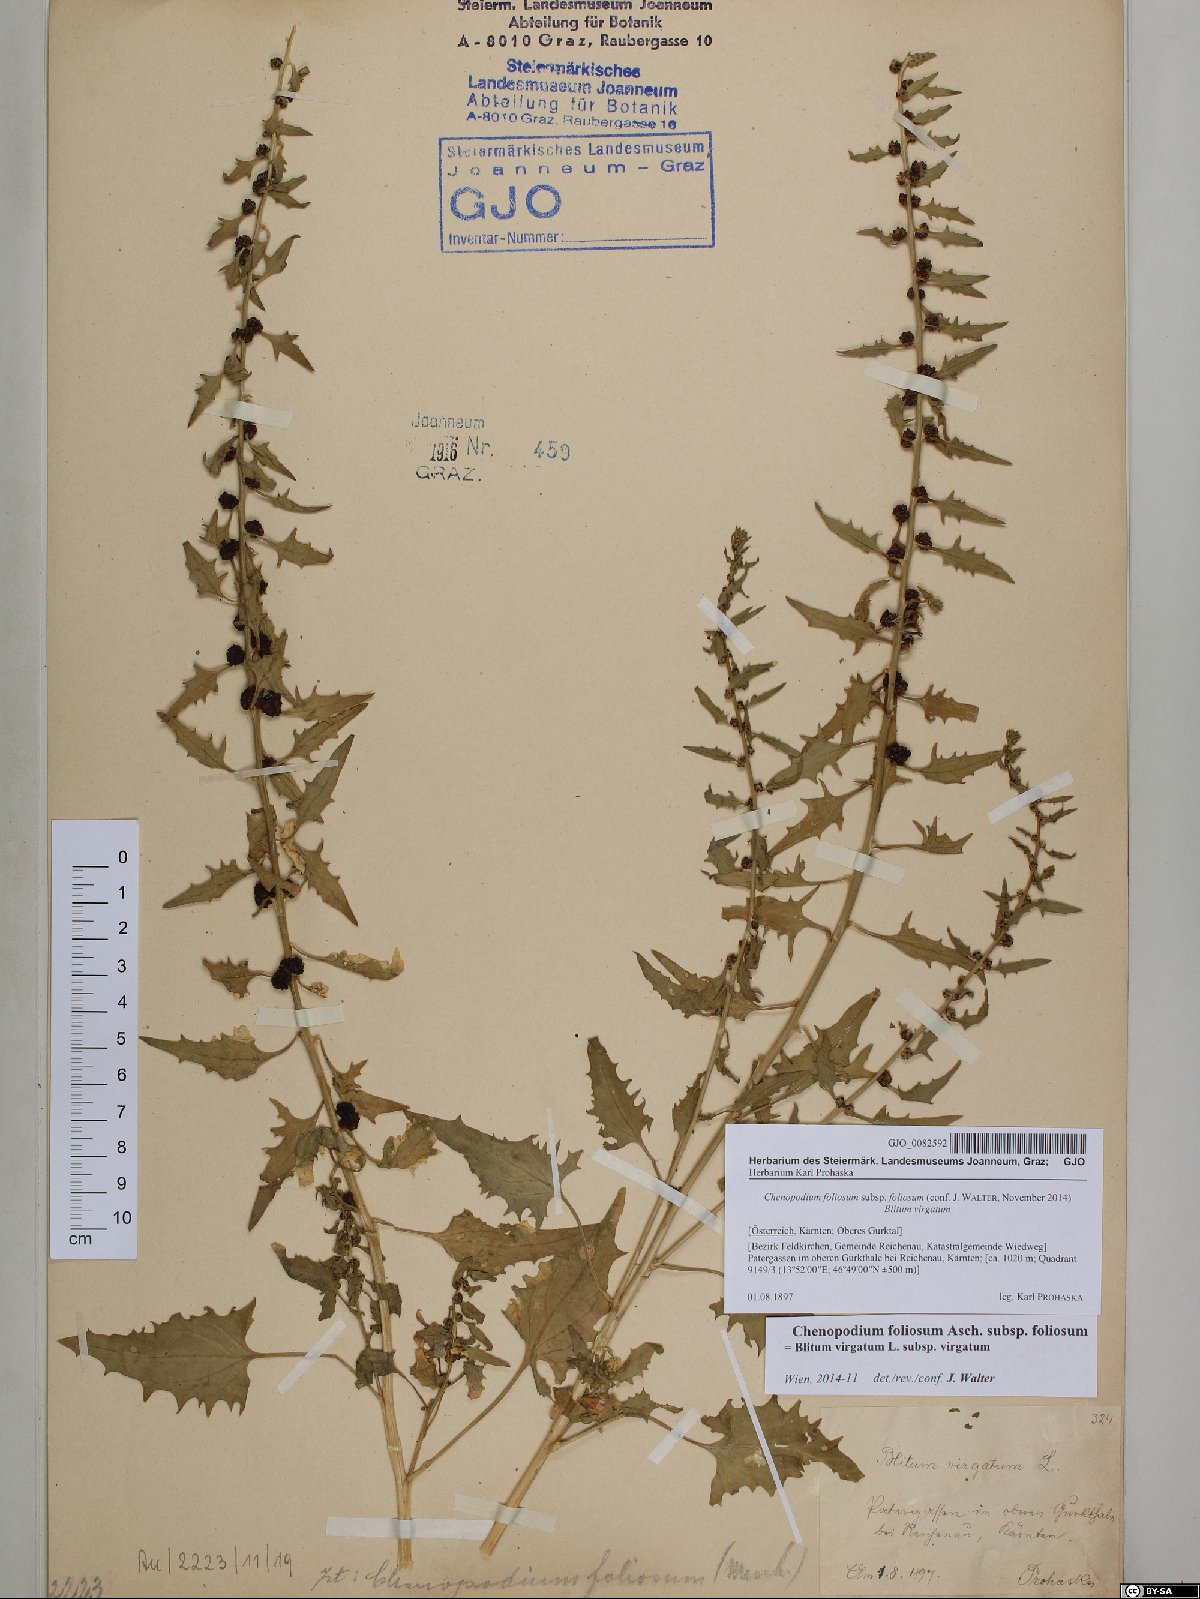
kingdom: Plantae
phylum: Tracheophyta
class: Magnoliopsida
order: Caryophyllales
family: Amaranthaceae
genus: Blitum
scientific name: Blitum virgatum
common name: Strawberry goosefoot
